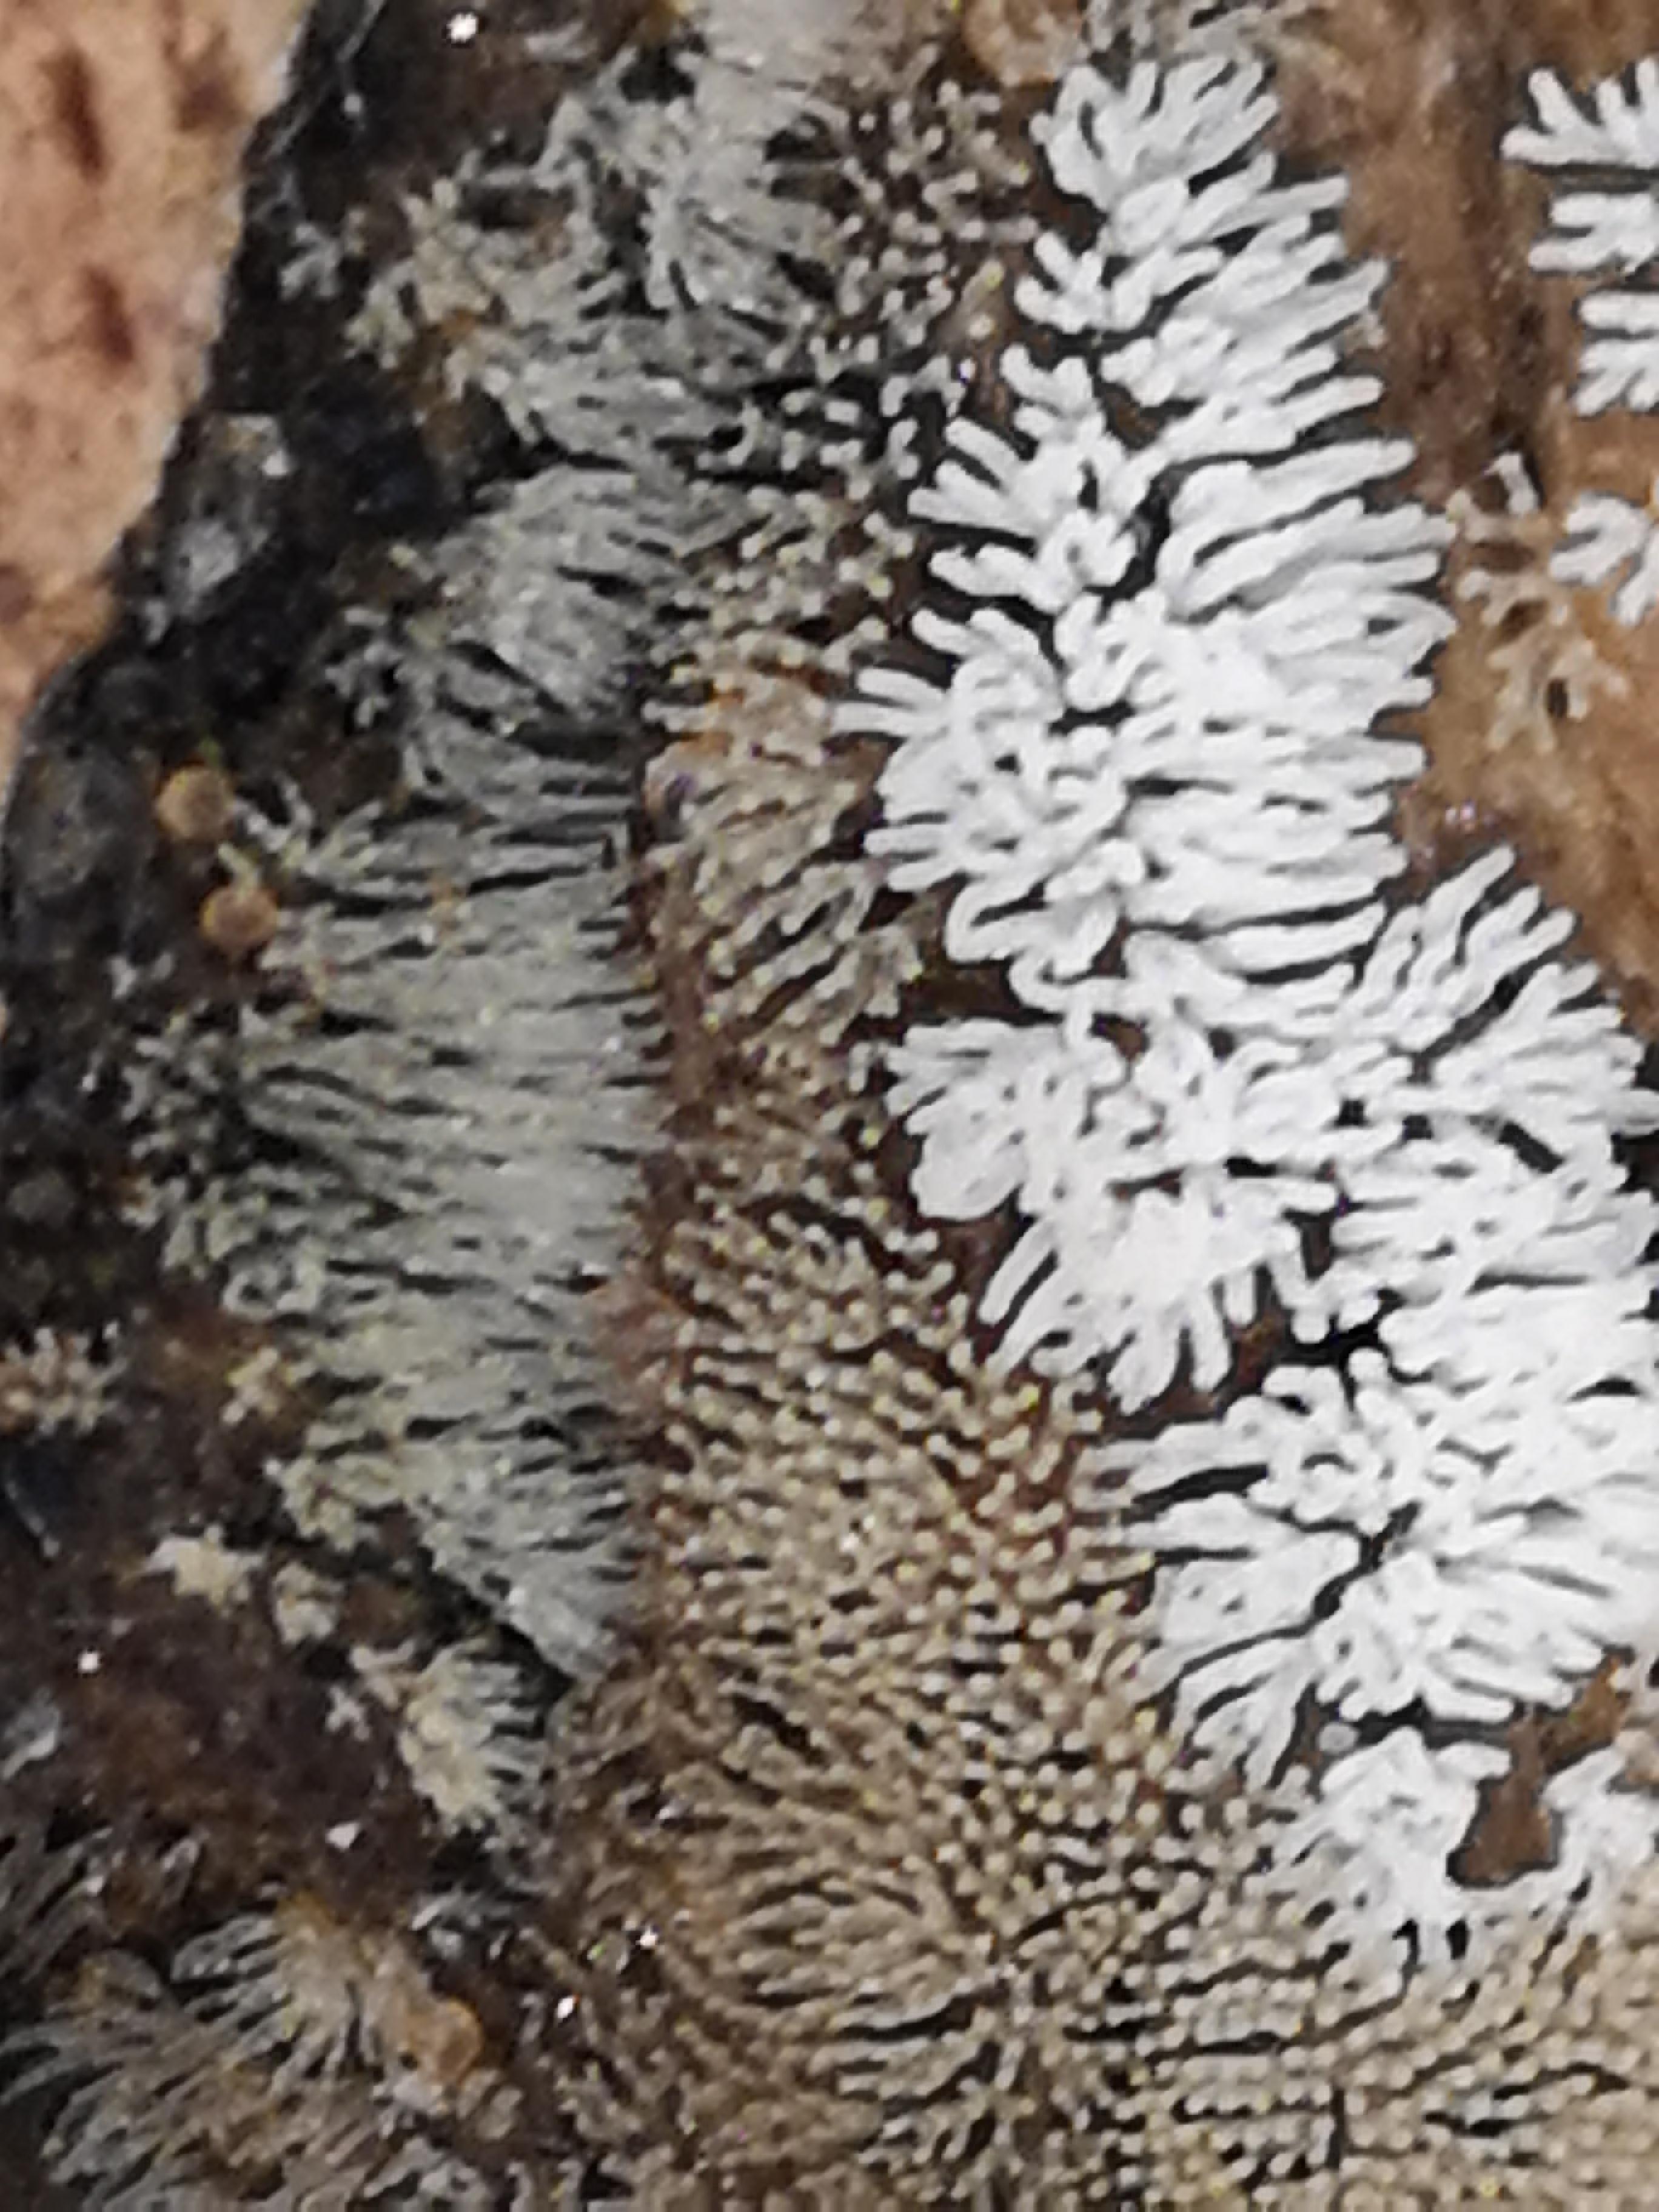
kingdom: Protozoa
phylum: Mycetozoa
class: Protosteliomycetes
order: Ceratiomyxales
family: Ceratiomyxaceae
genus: Ceratiomyxa
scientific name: Ceratiomyxa fruticulosa
